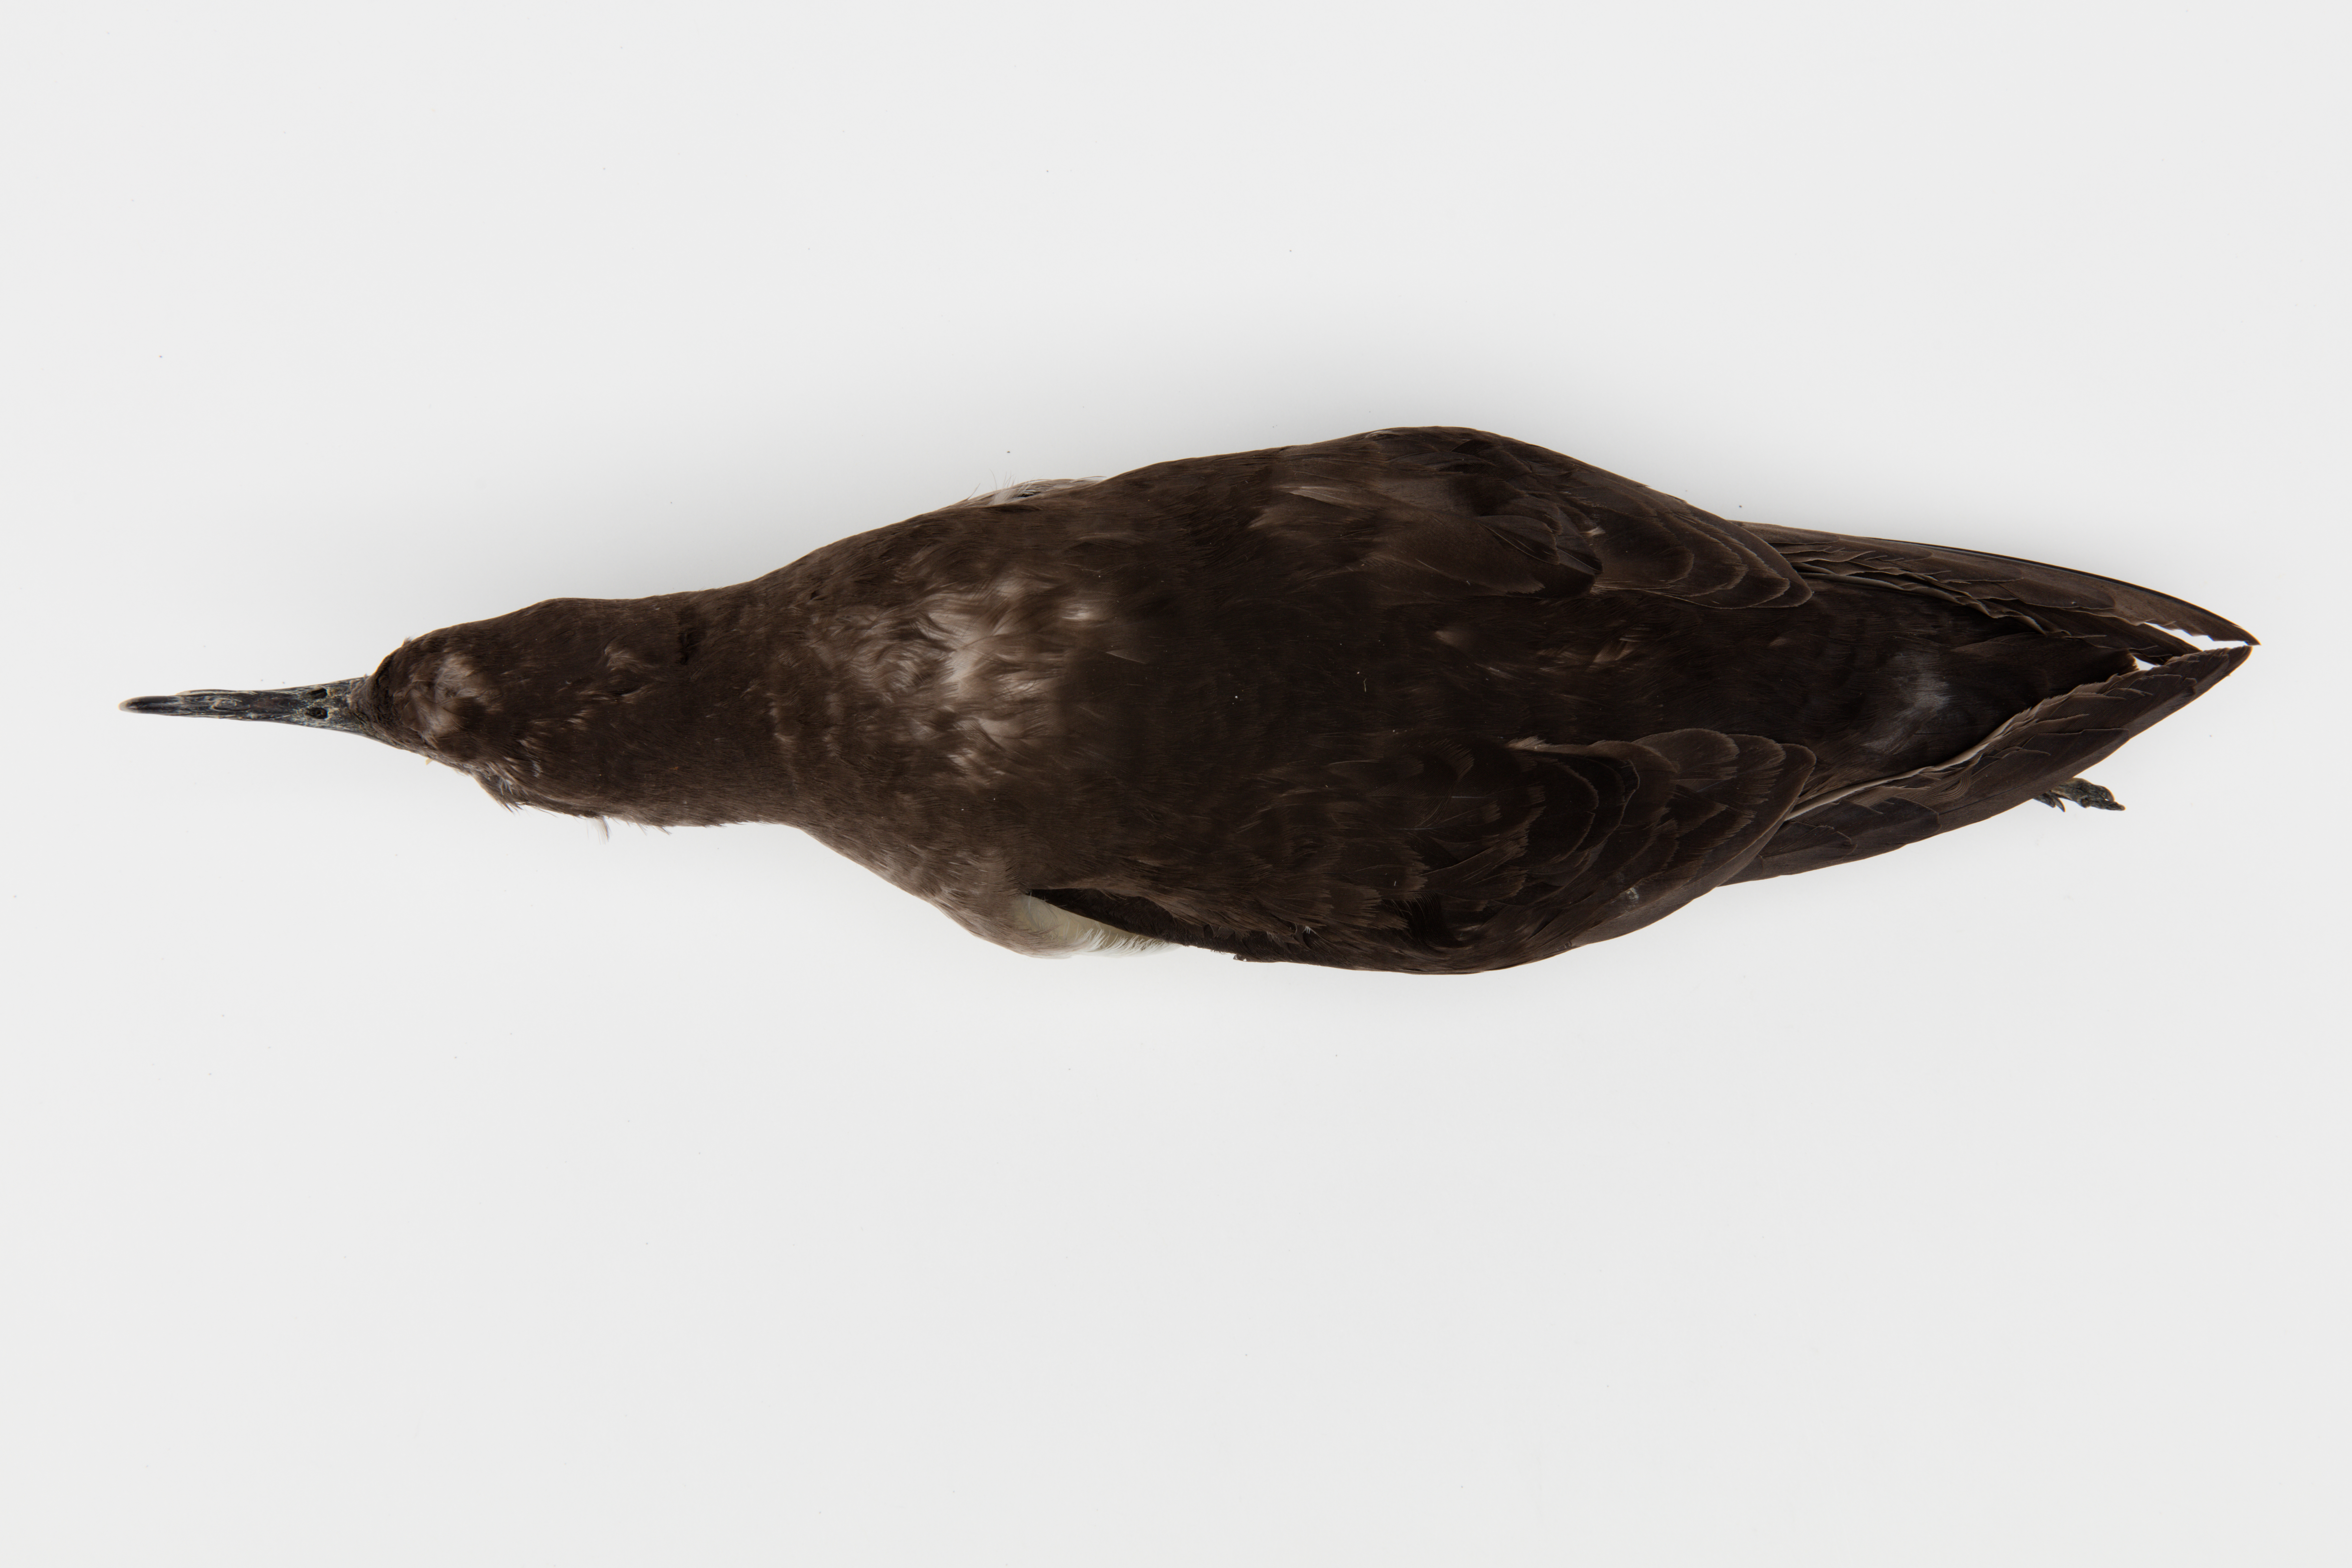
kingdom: Animalia
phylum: Chordata
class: Aves
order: Procellariiformes
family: Procellariidae
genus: Puffinus
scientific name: Puffinus huttoni
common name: Hutton's shearwater
